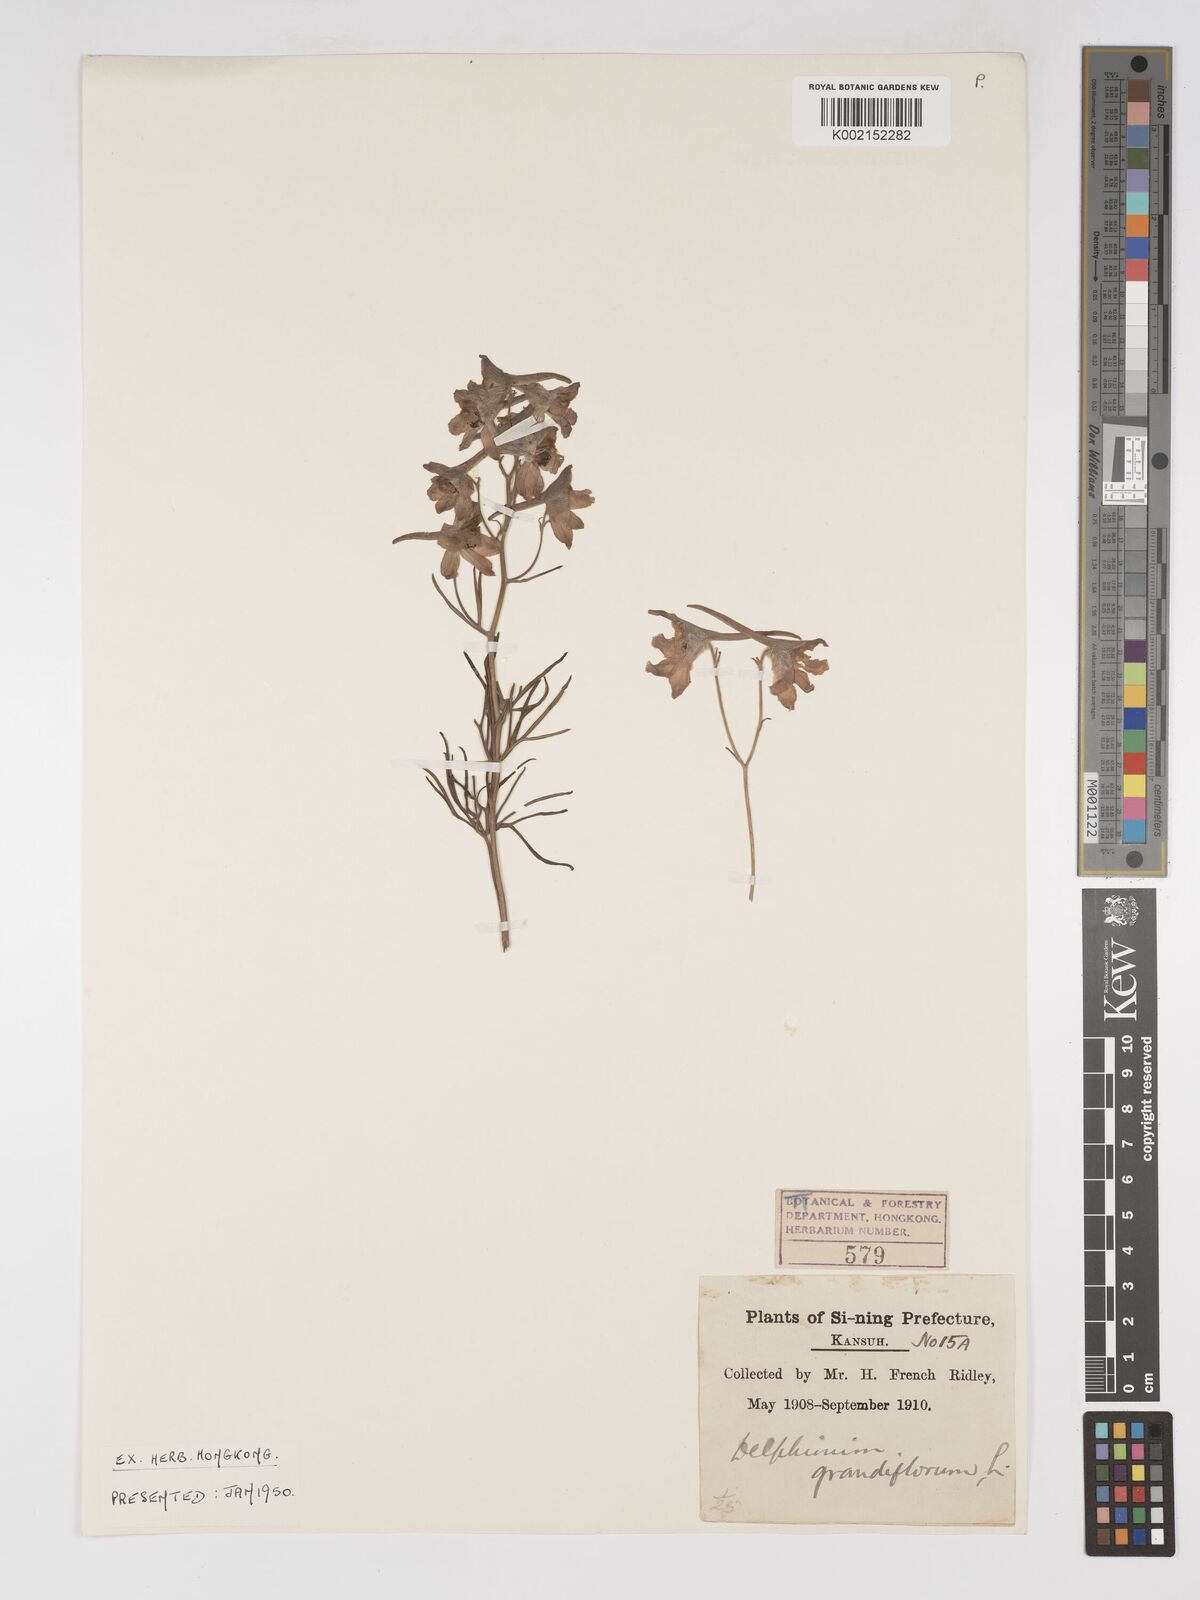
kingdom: Plantae
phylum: Tracheophyta
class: Magnoliopsida
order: Ranunculales
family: Ranunculaceae
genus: Delphinium
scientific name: Delphinium grandiflorum
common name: Siberian larkspur
